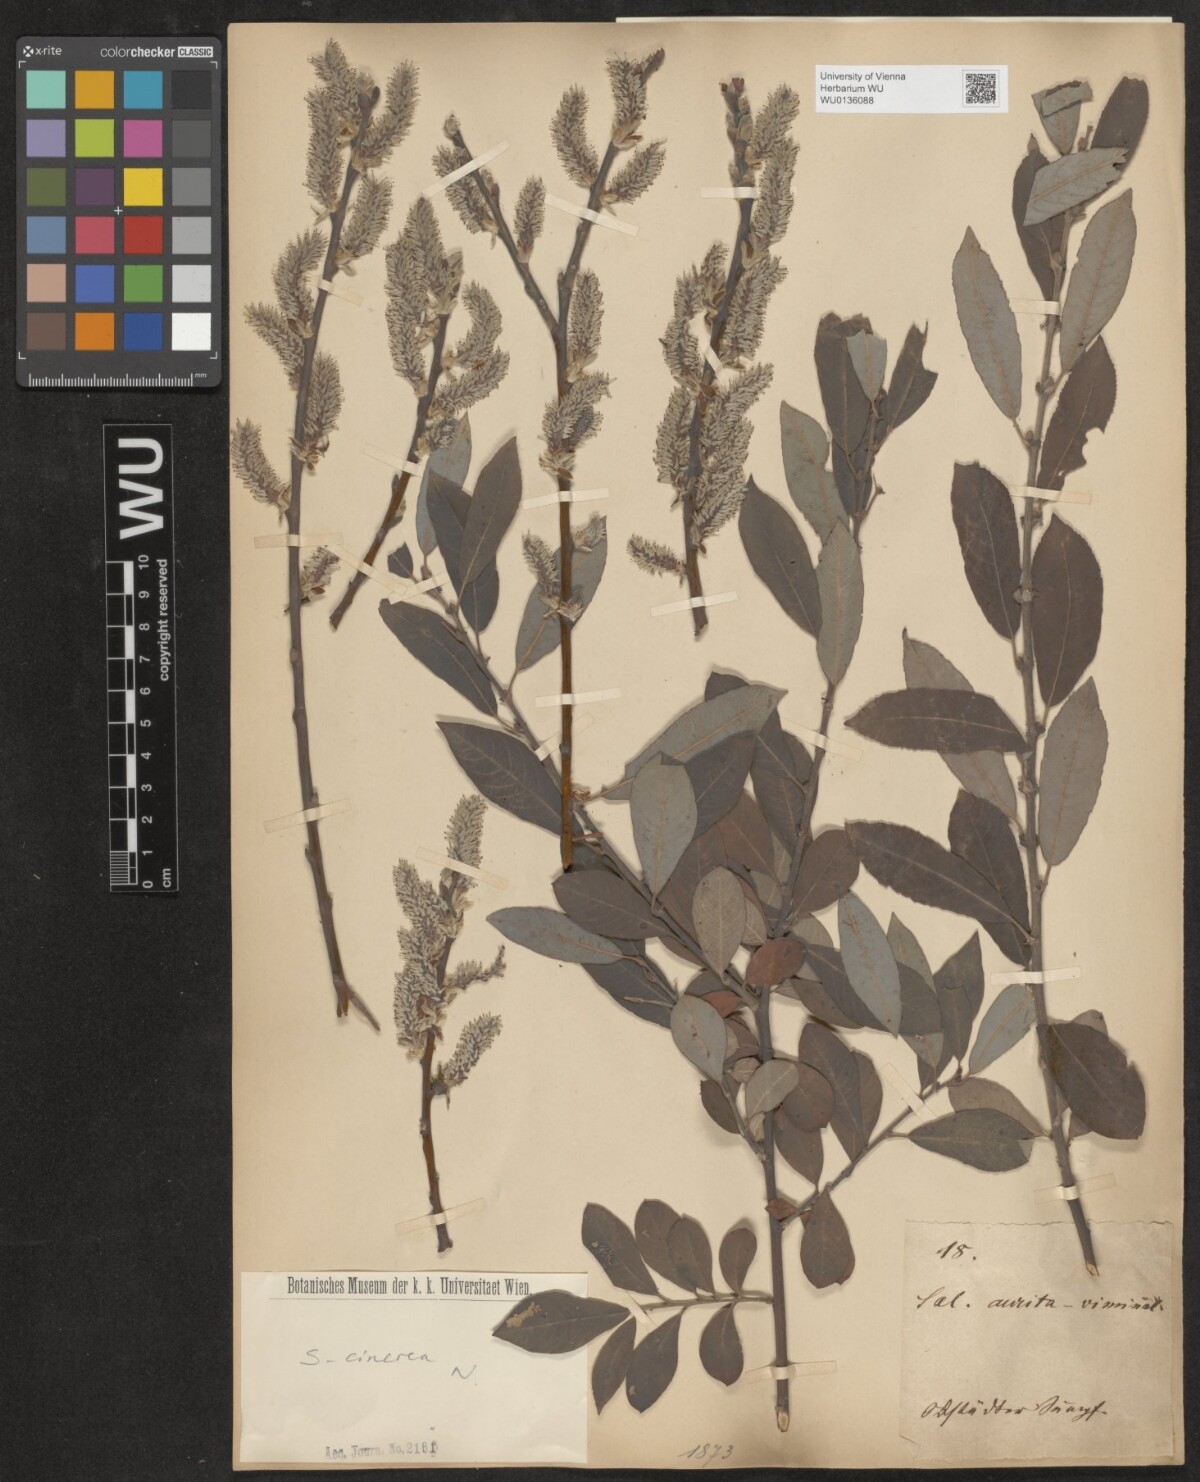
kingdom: Plantae
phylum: Tracheophyta
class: Magnoliopsida
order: Malpighiales
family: Salicaceae
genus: Salix
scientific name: Salix cinerea
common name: Common sallow
